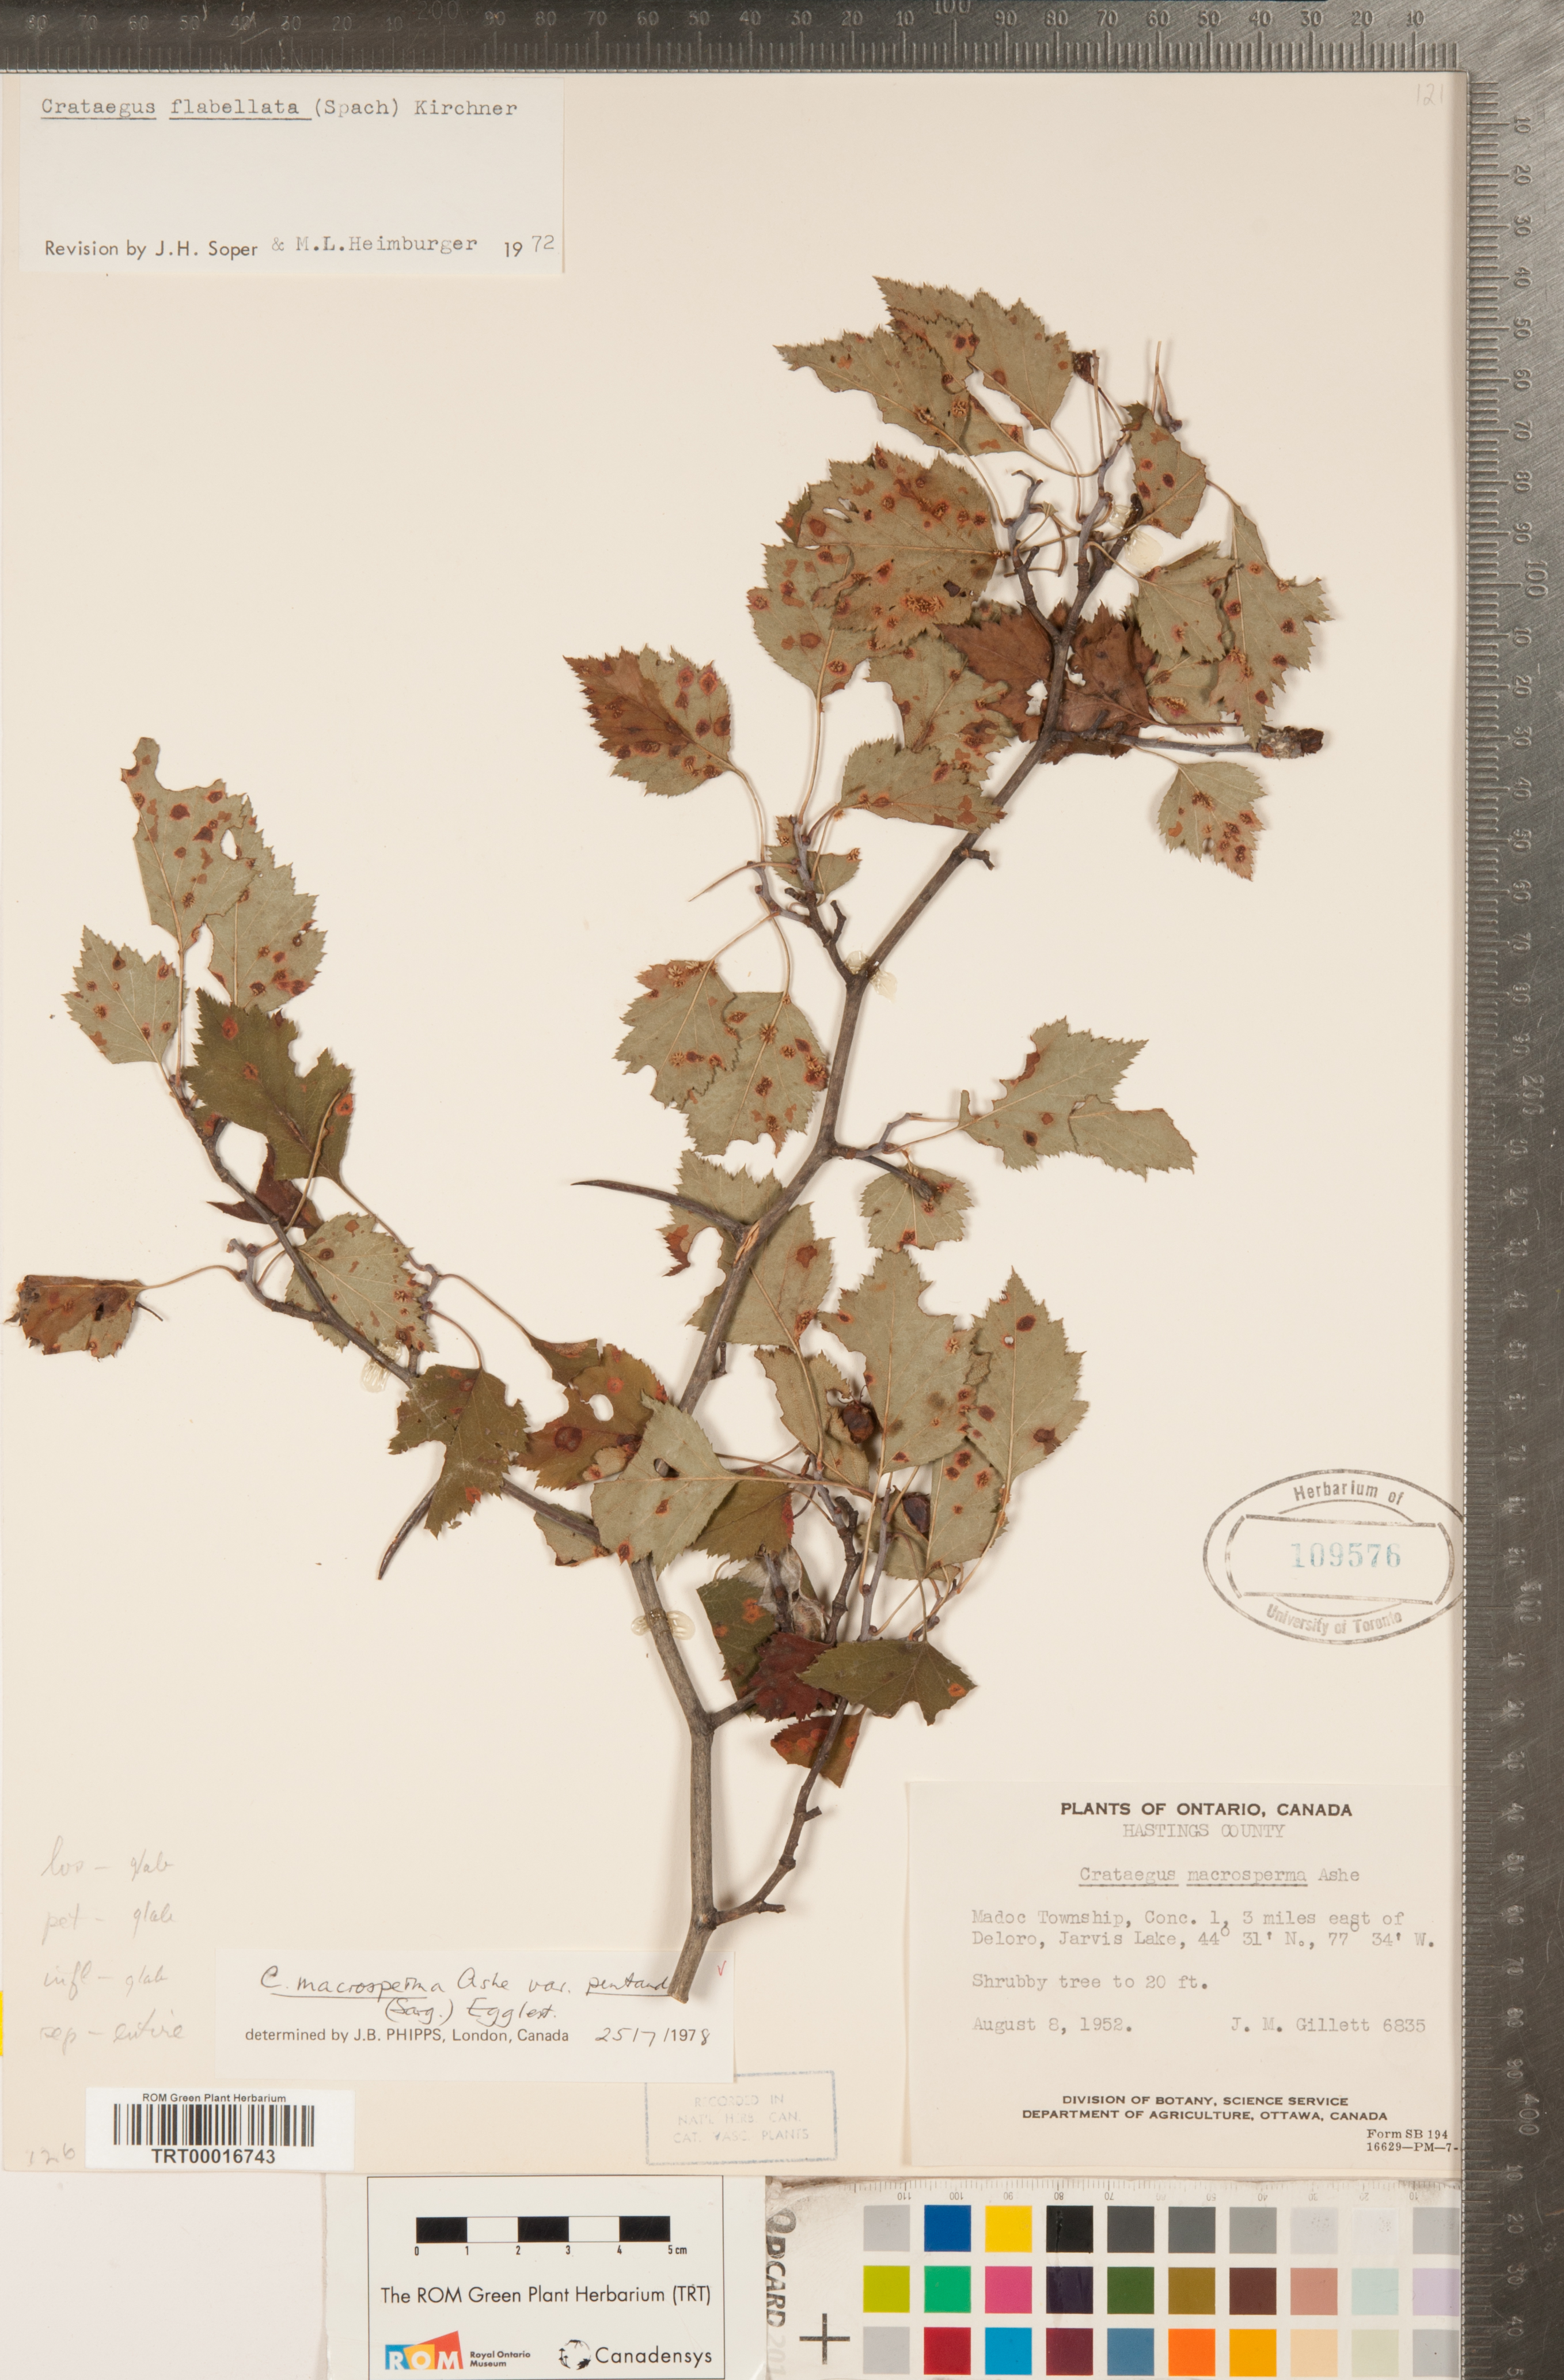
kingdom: Plantae
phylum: Tracheophyta
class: Magnoliopsida
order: Rosales
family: Rosaceae
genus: Crataegus
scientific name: Crataegus macrosperma
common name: Variable hawthorn
